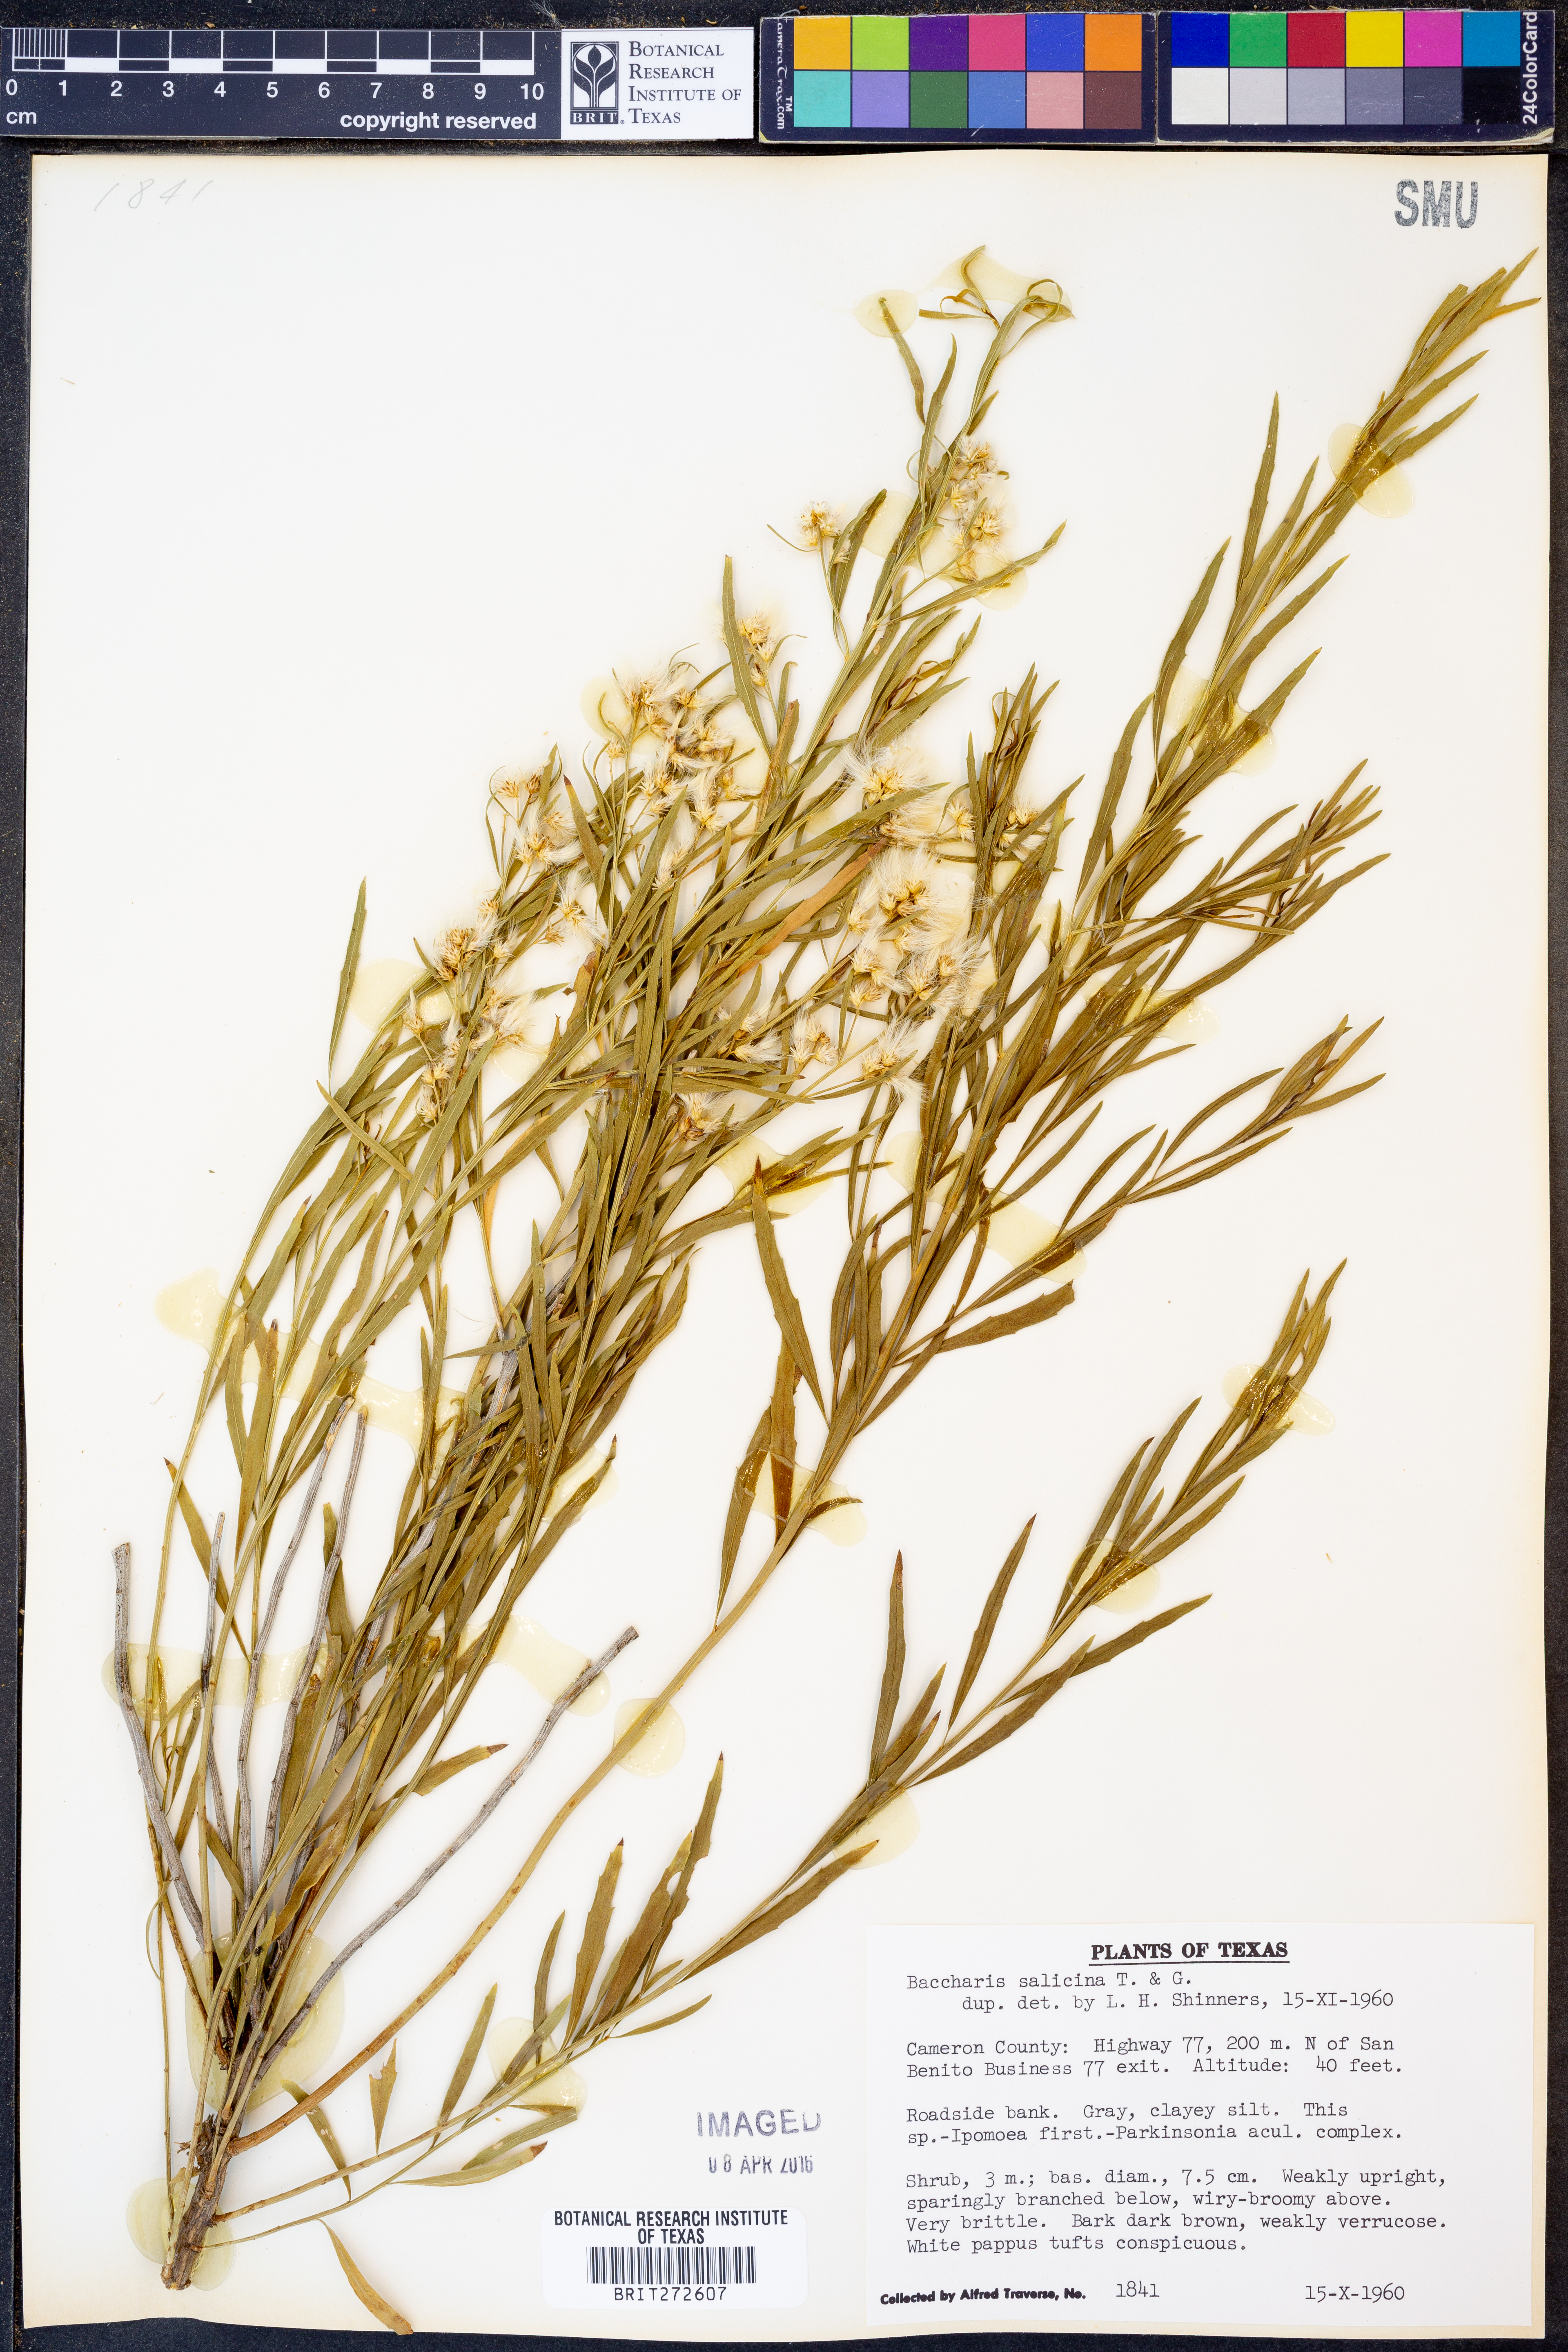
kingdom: Plantae
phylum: Tracheophyta
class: Magnoliopsida
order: Asterales
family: Asteraceae
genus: Baccharis
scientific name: Baccharis salicina
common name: Willow baccharis
